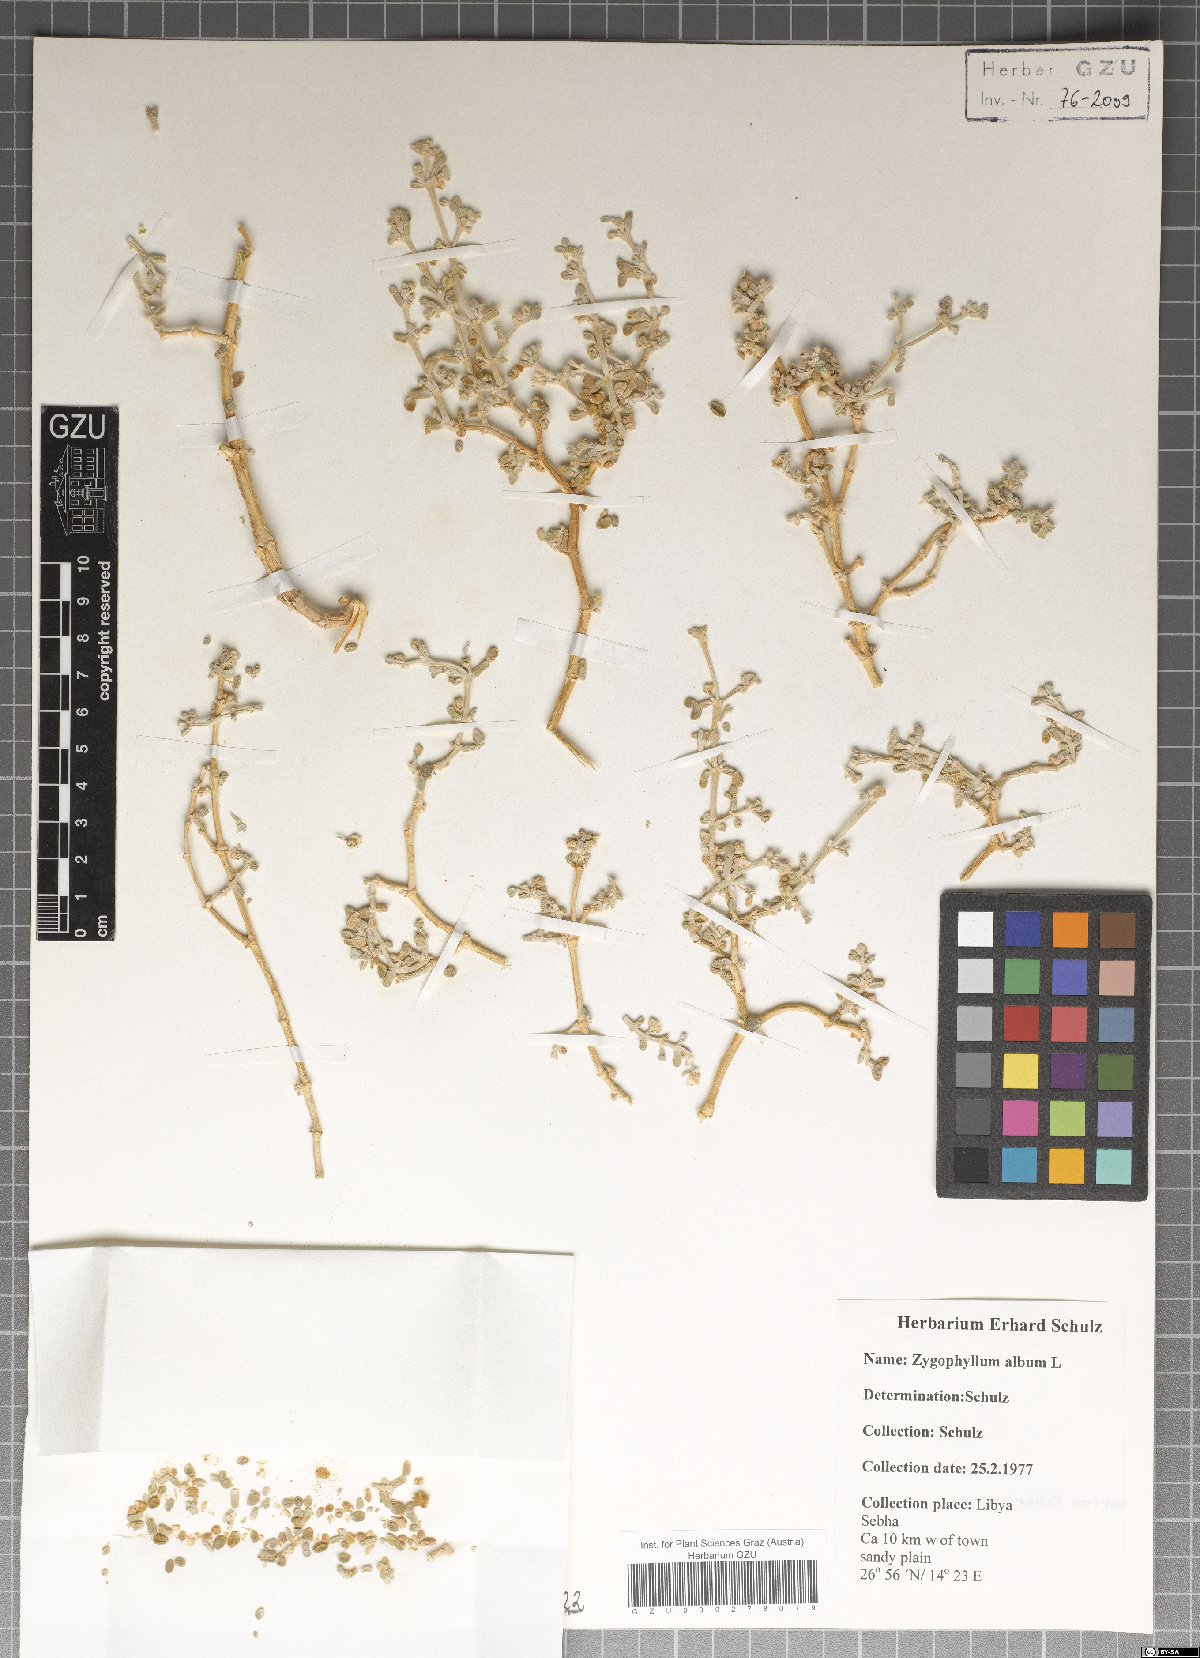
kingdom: Plantae
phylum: Tracheophyta
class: Magnoliopsida
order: Zygophyllales
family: Zygophyllaceae
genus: Tetraena
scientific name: Tetraena alba
